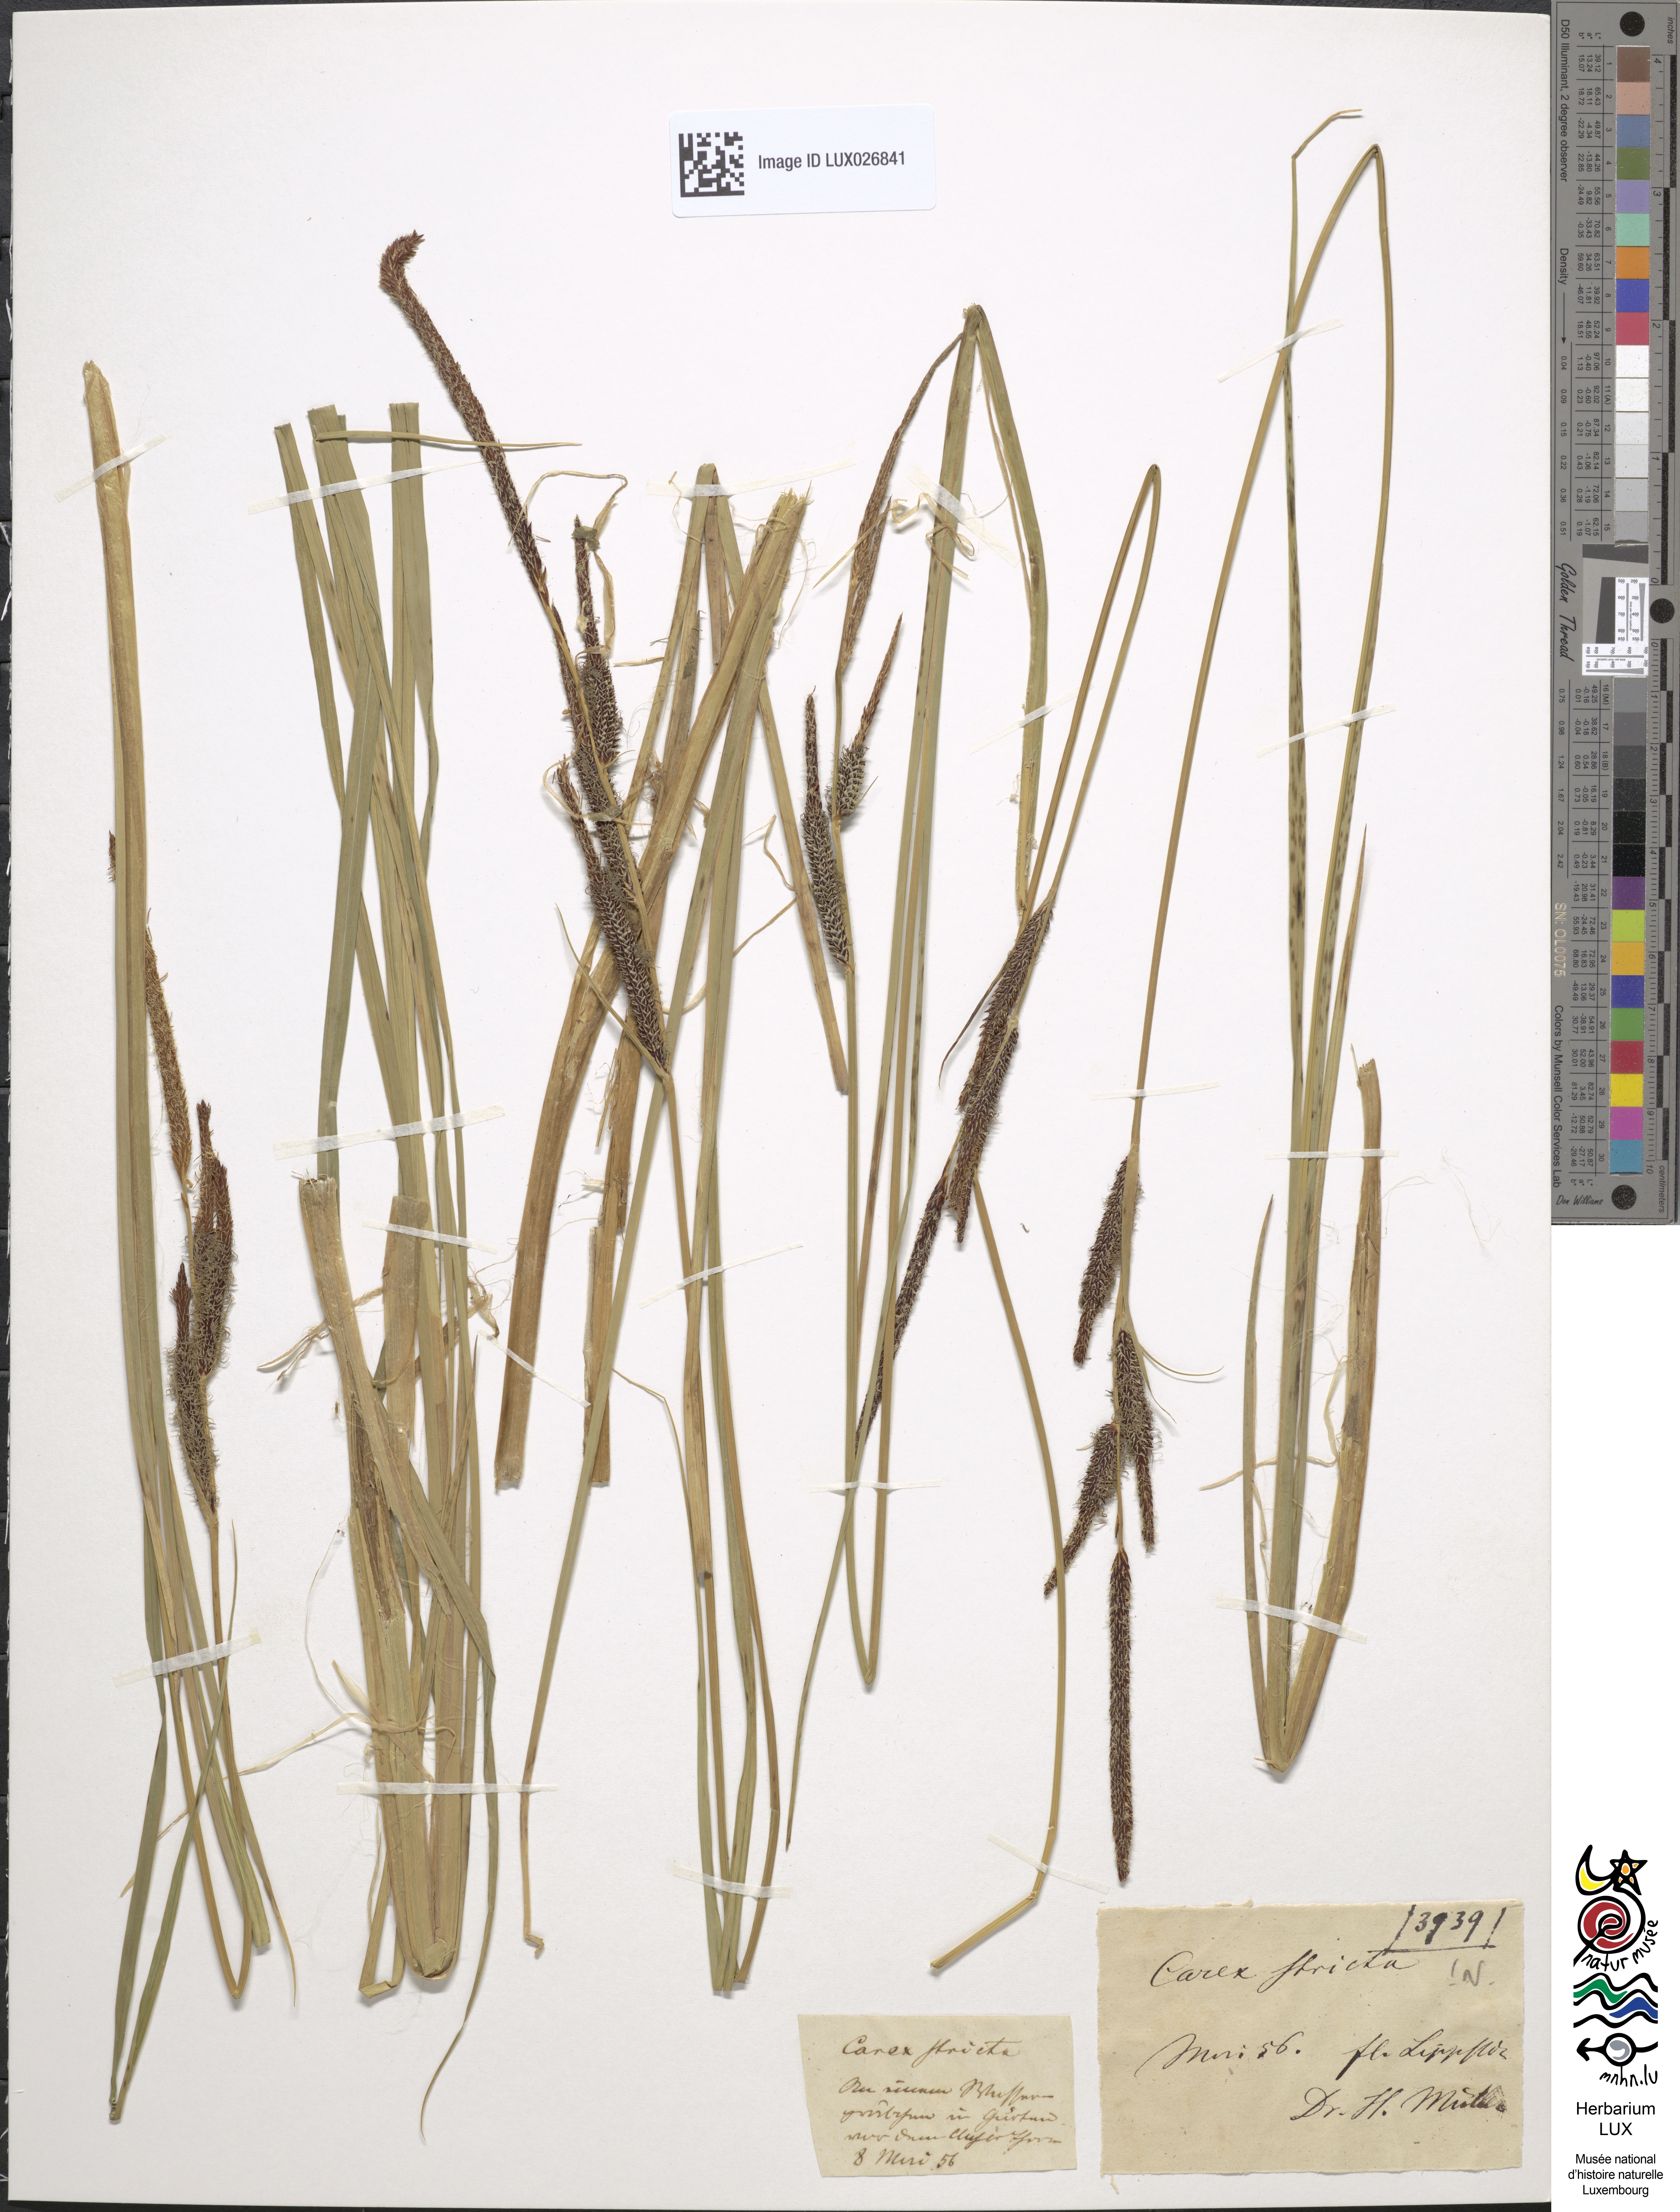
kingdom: Plantae
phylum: Tracheophyta
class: Liliopsida
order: Poales
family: Cyperaceae
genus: Carex
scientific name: Carex elata
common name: Tufted sedge
